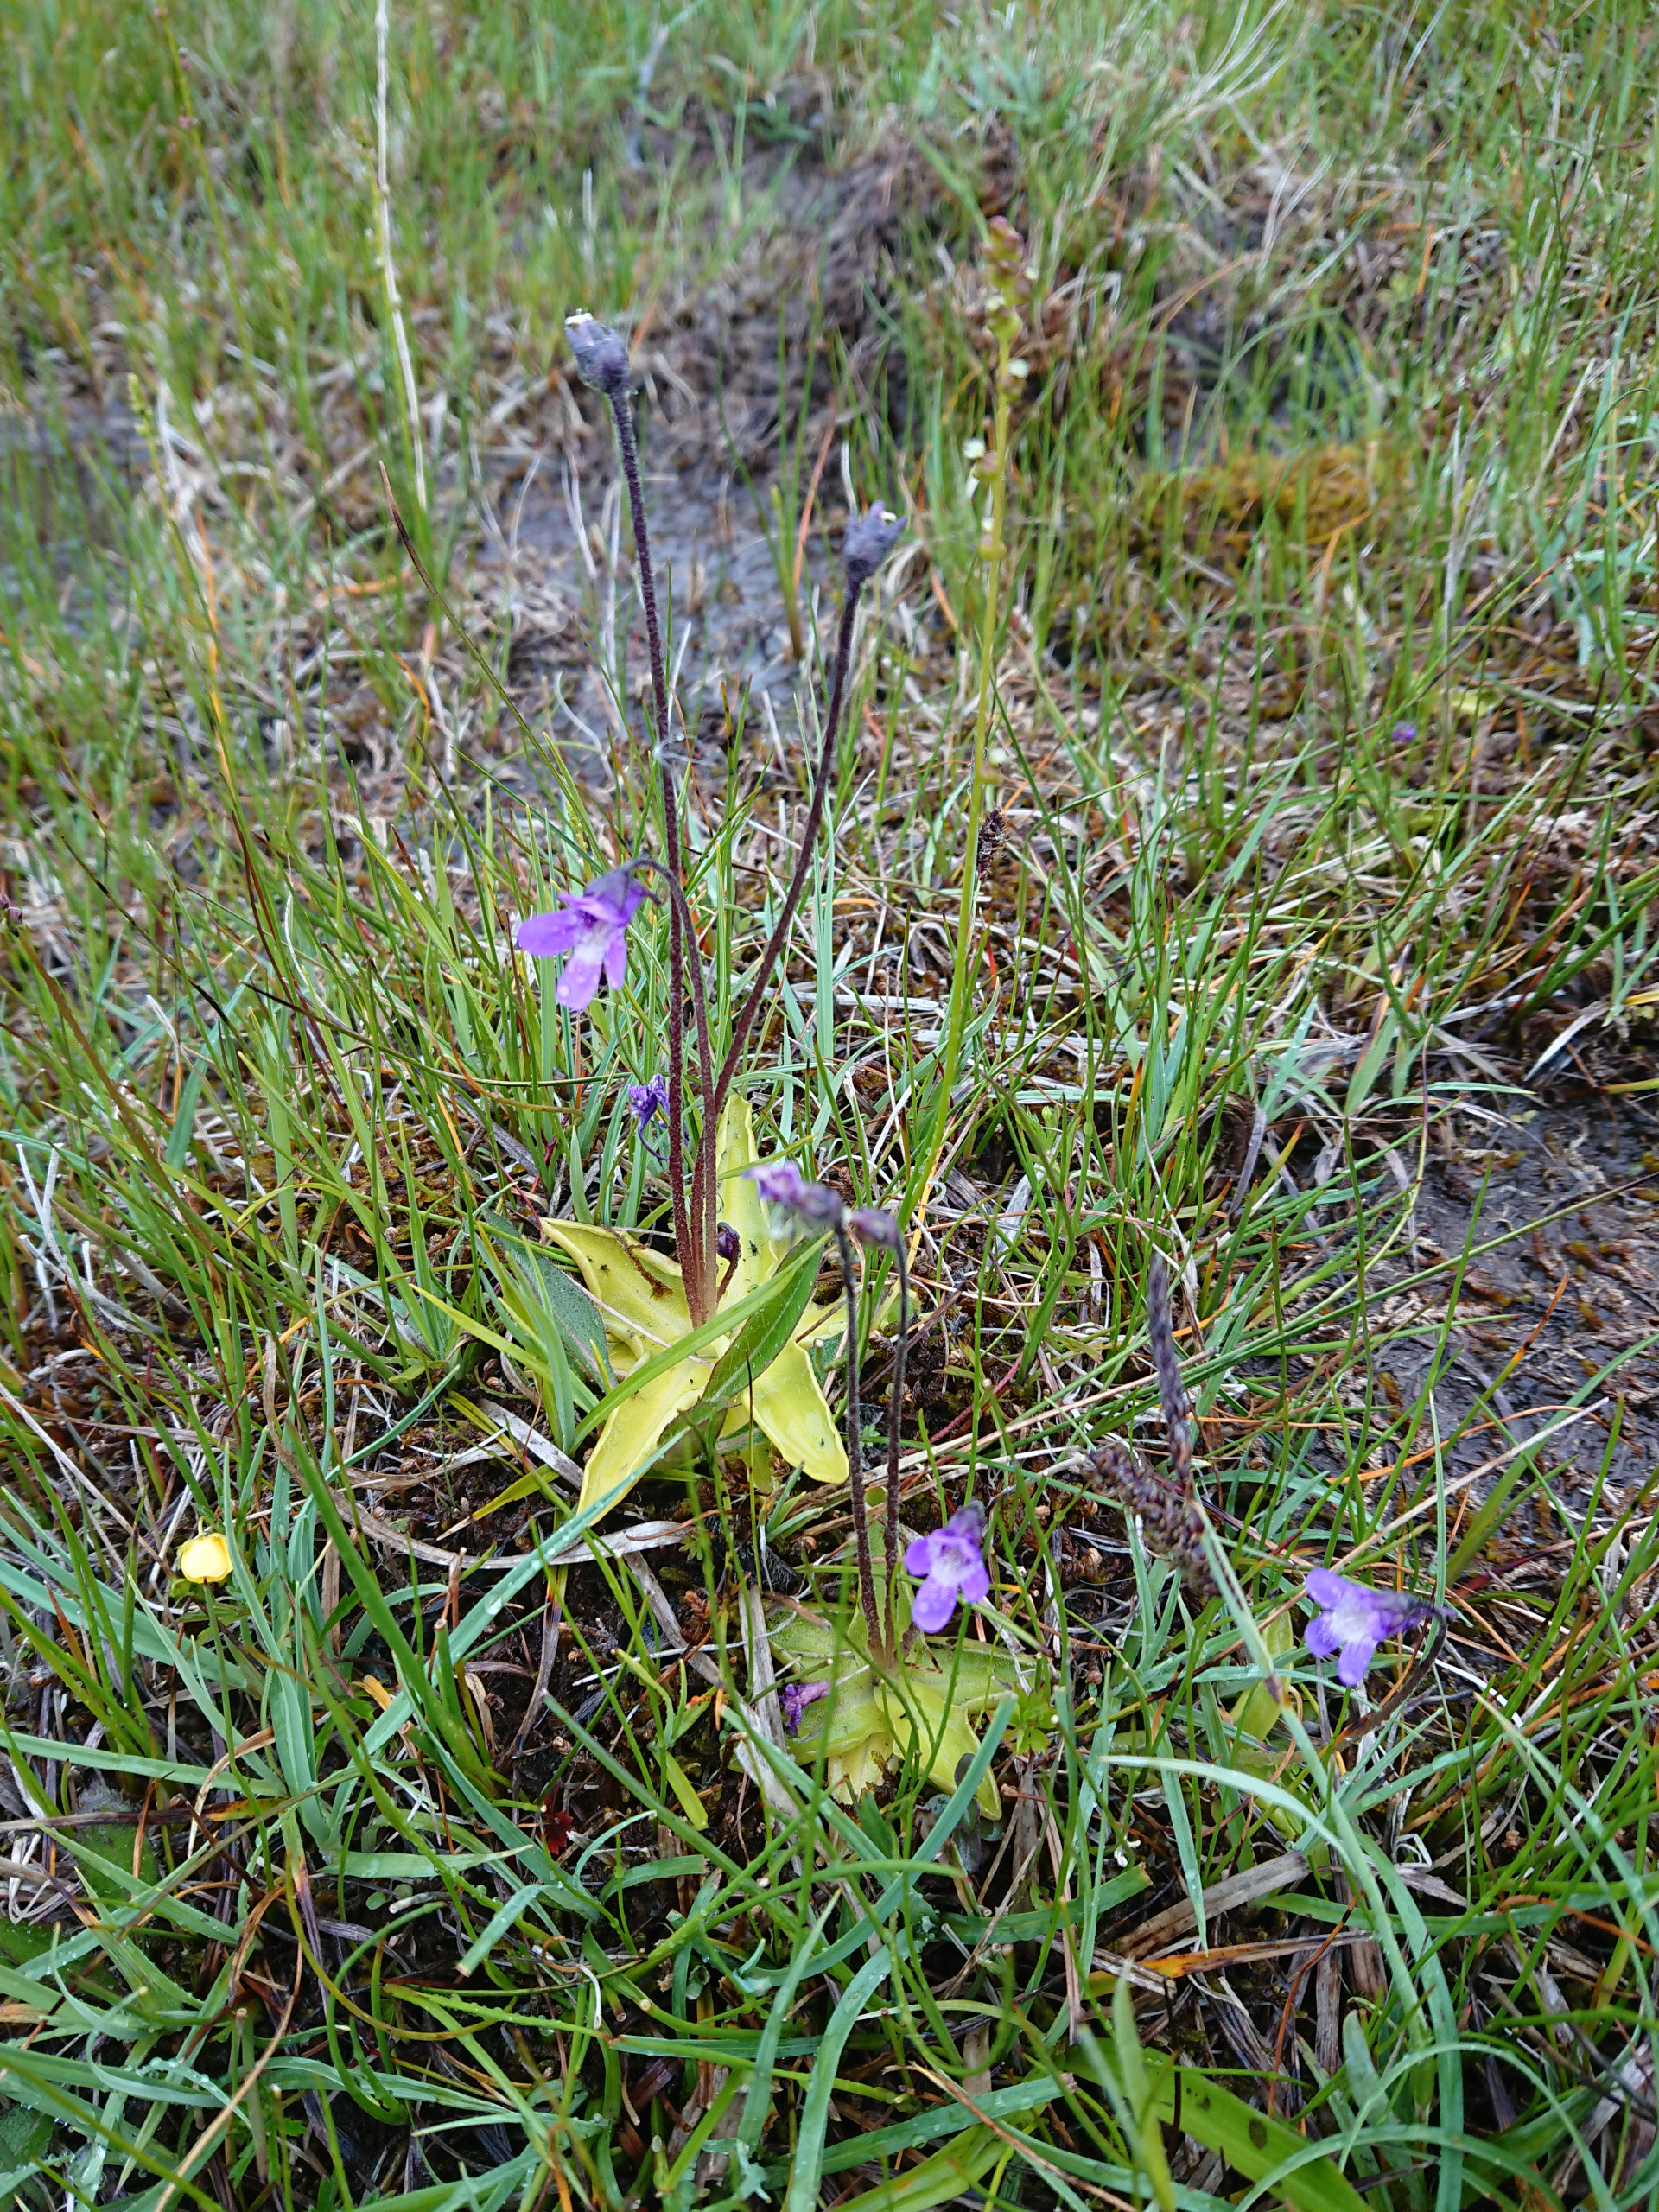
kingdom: Plantae
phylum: Tracheophyta
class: Magnoliopsida
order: Lamiales
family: Lentibulariaceae
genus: Pinguicula
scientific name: Pinguicula vulgaris
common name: Vibefedt
